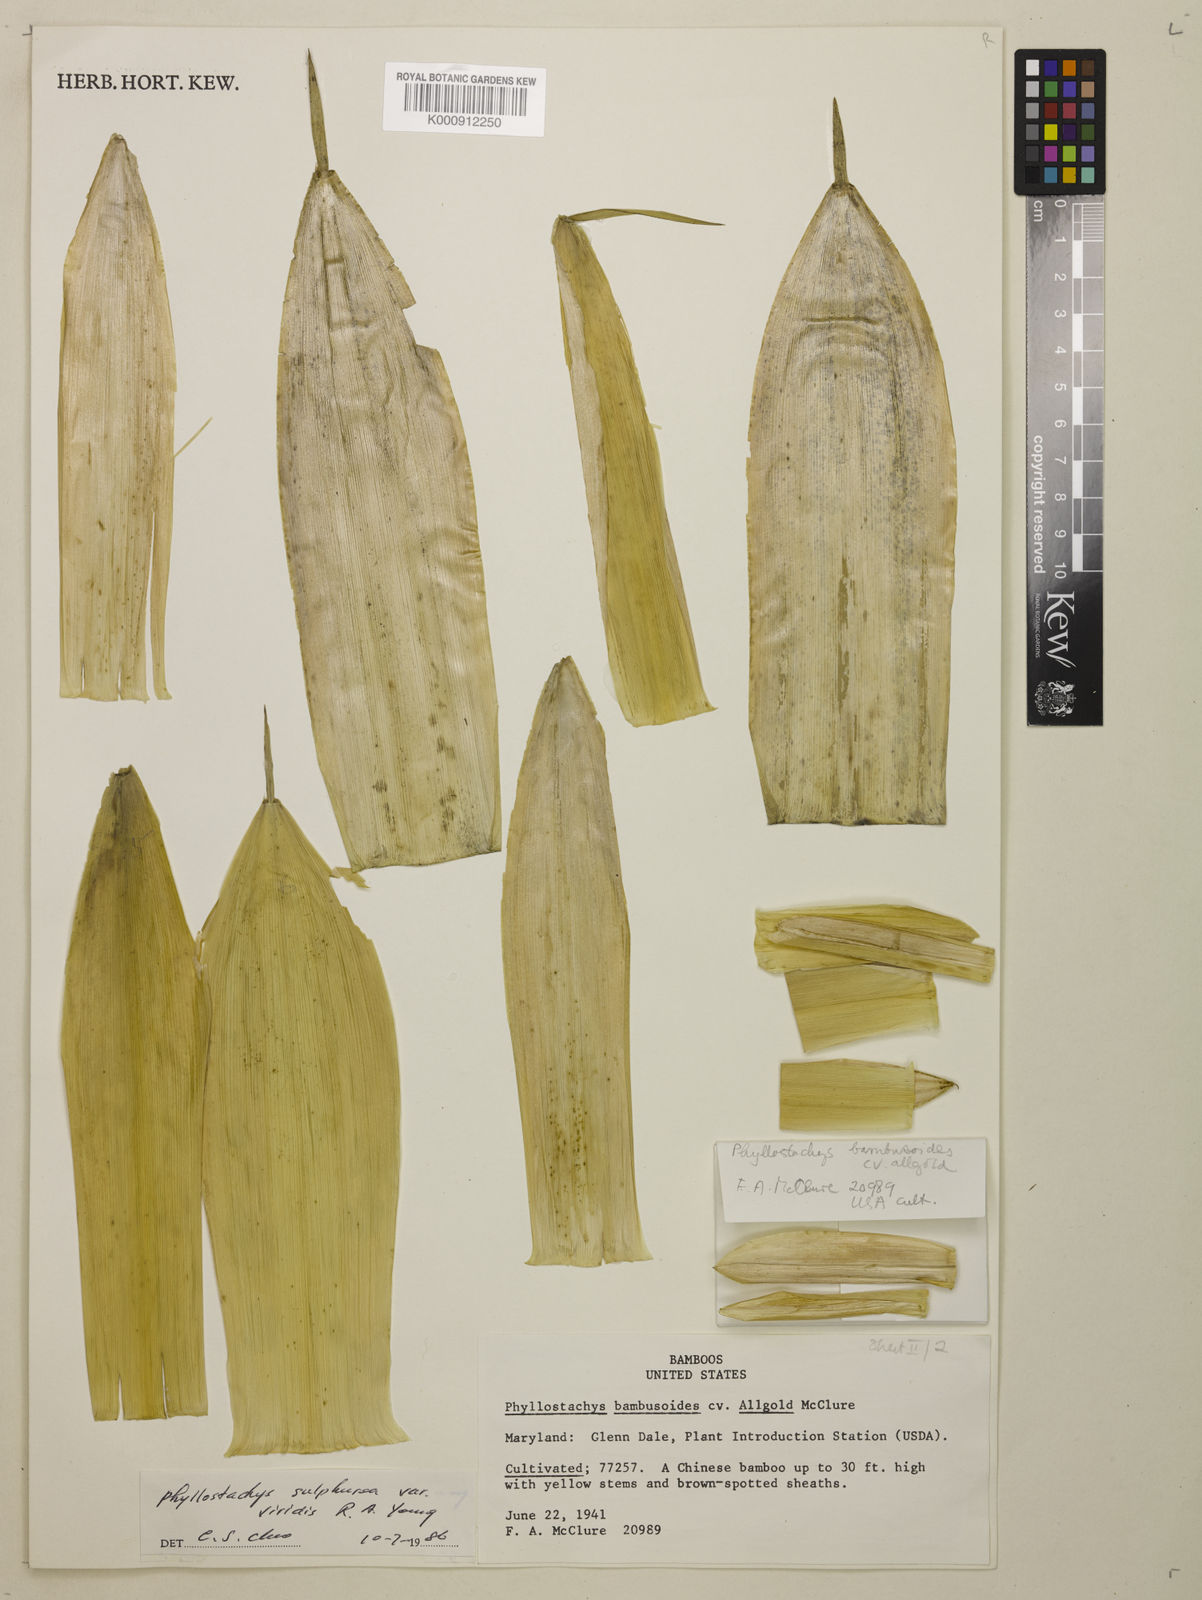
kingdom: Plantae
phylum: Tracheophyta
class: Liliopsida
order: Poales
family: Poaceae
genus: Phyllostachys
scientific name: Phyllostachys
